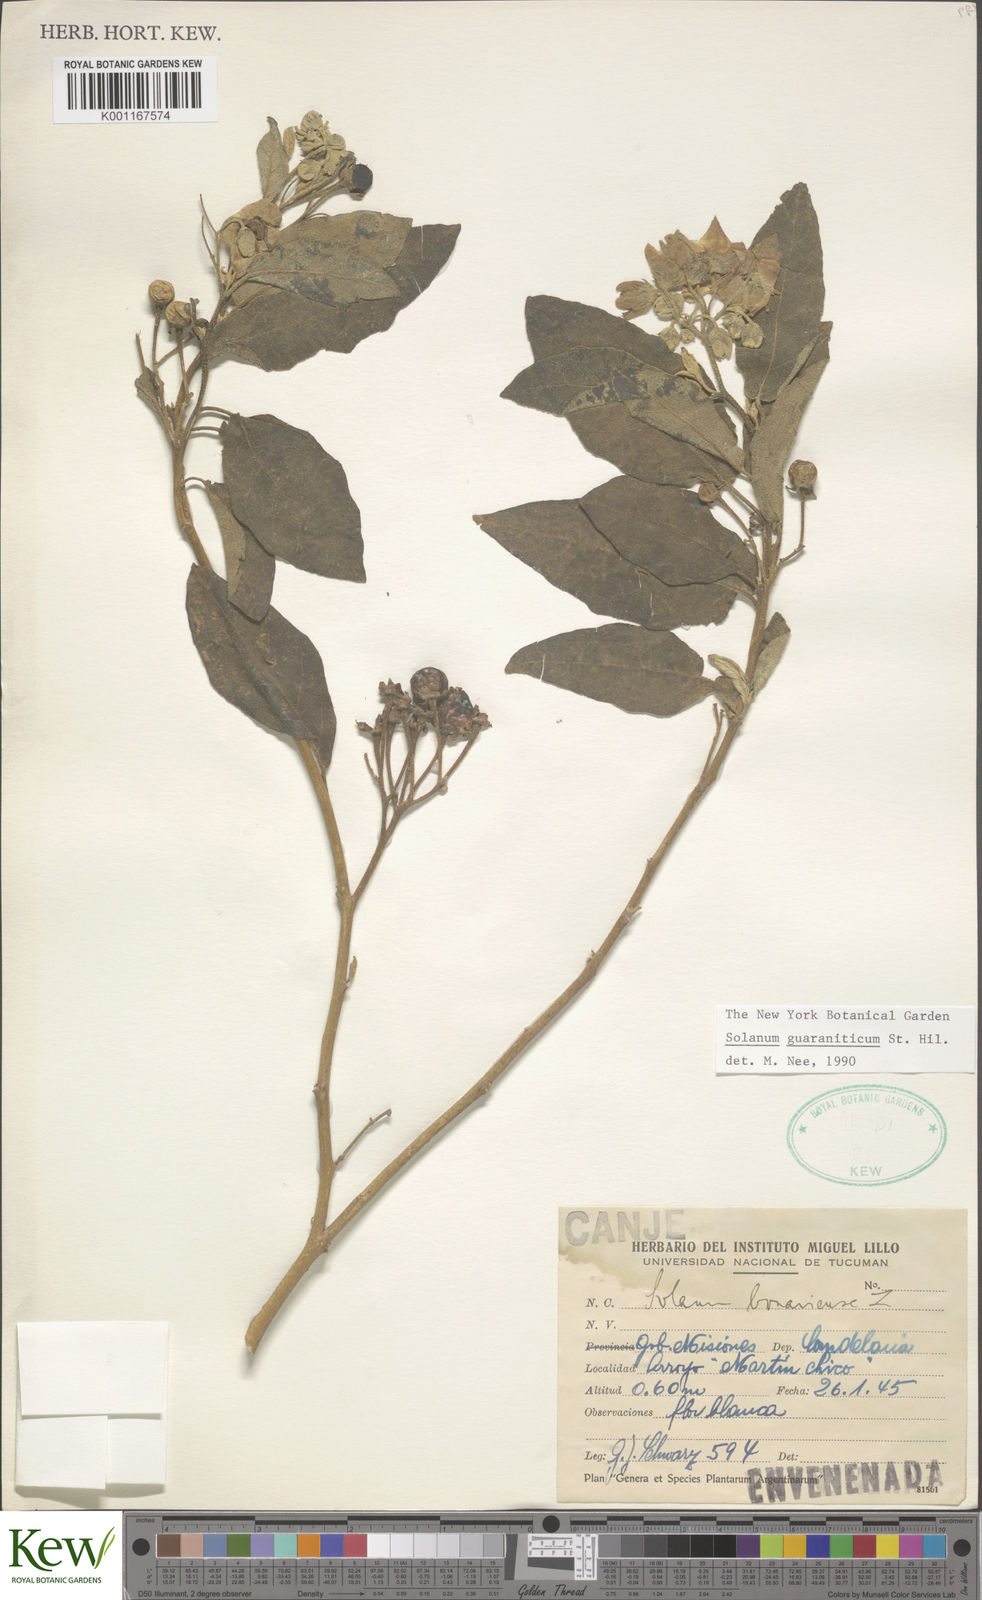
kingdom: Plantae
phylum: Tracheophyta
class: Magnoliopsida
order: Solanales
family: Solanaceae
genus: Solanum
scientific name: Solanum guaraniticum
